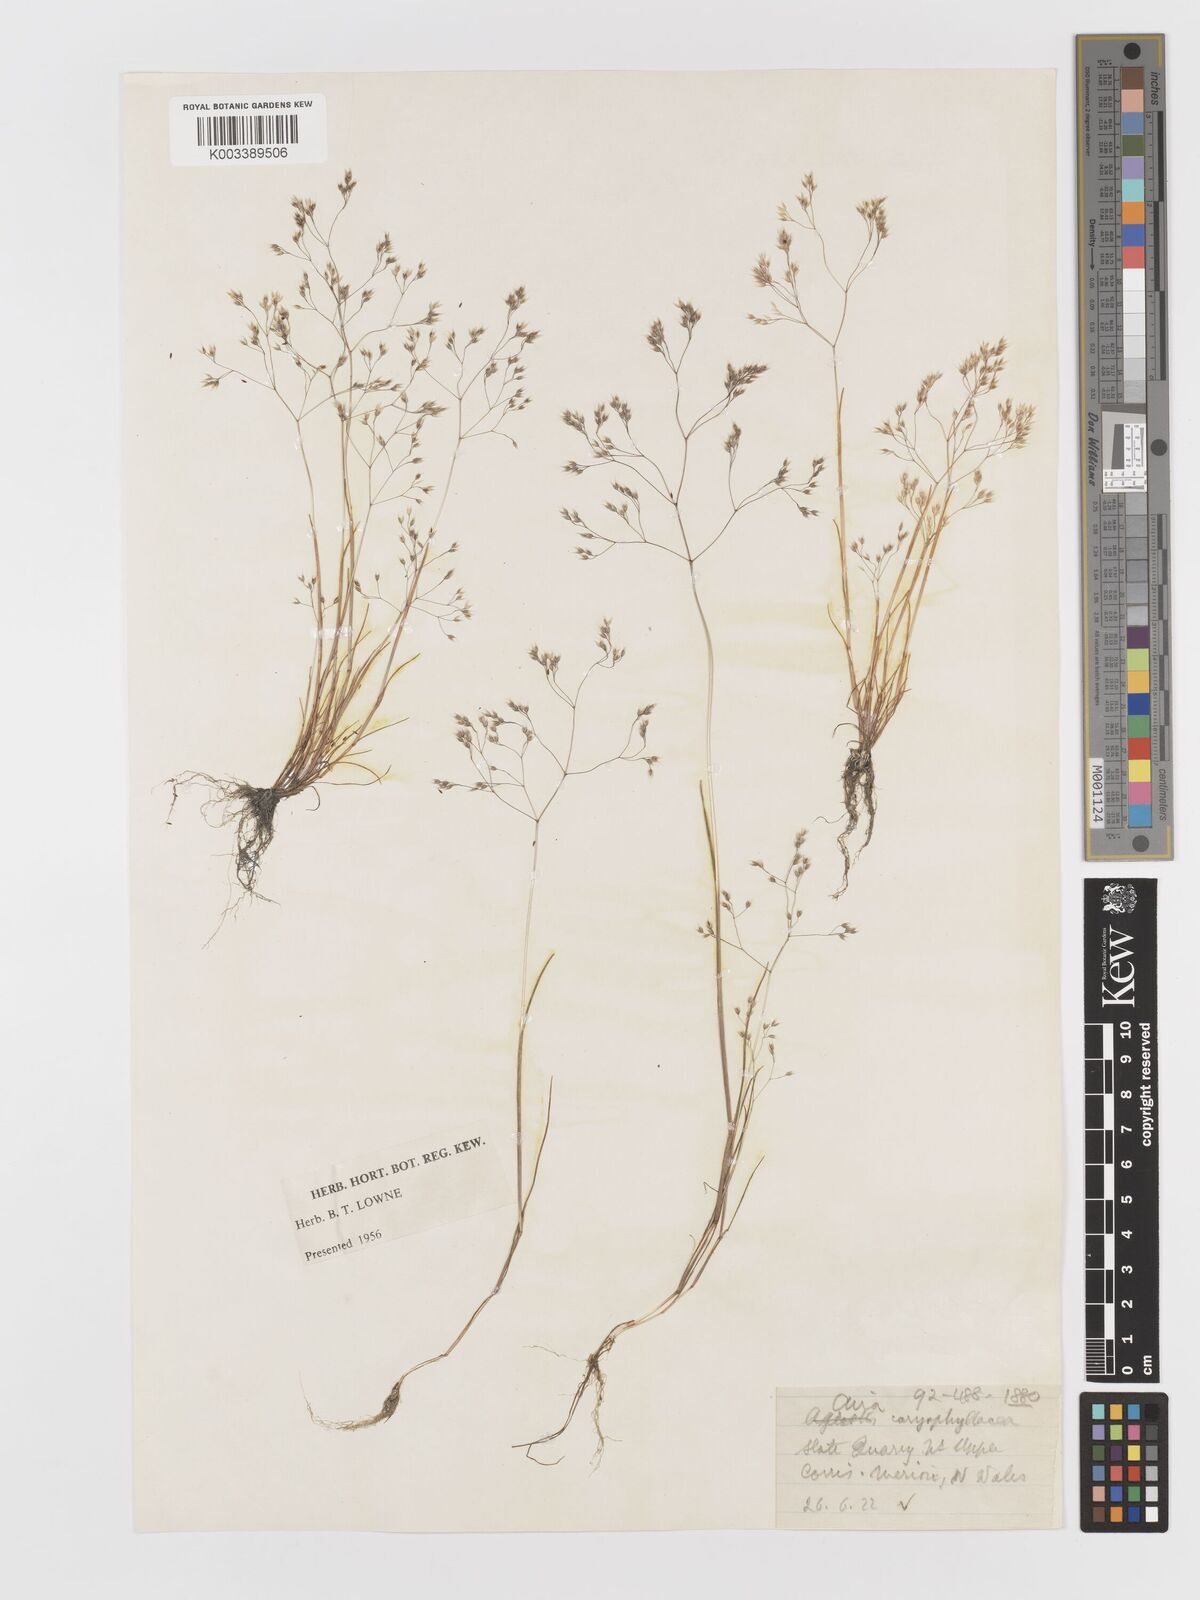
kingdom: Plantae
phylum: Tracheophyta
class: Liliopsida
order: Poales
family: Poaceae
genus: Aira
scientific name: Aira caryophyllea
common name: Silver hairgrass
